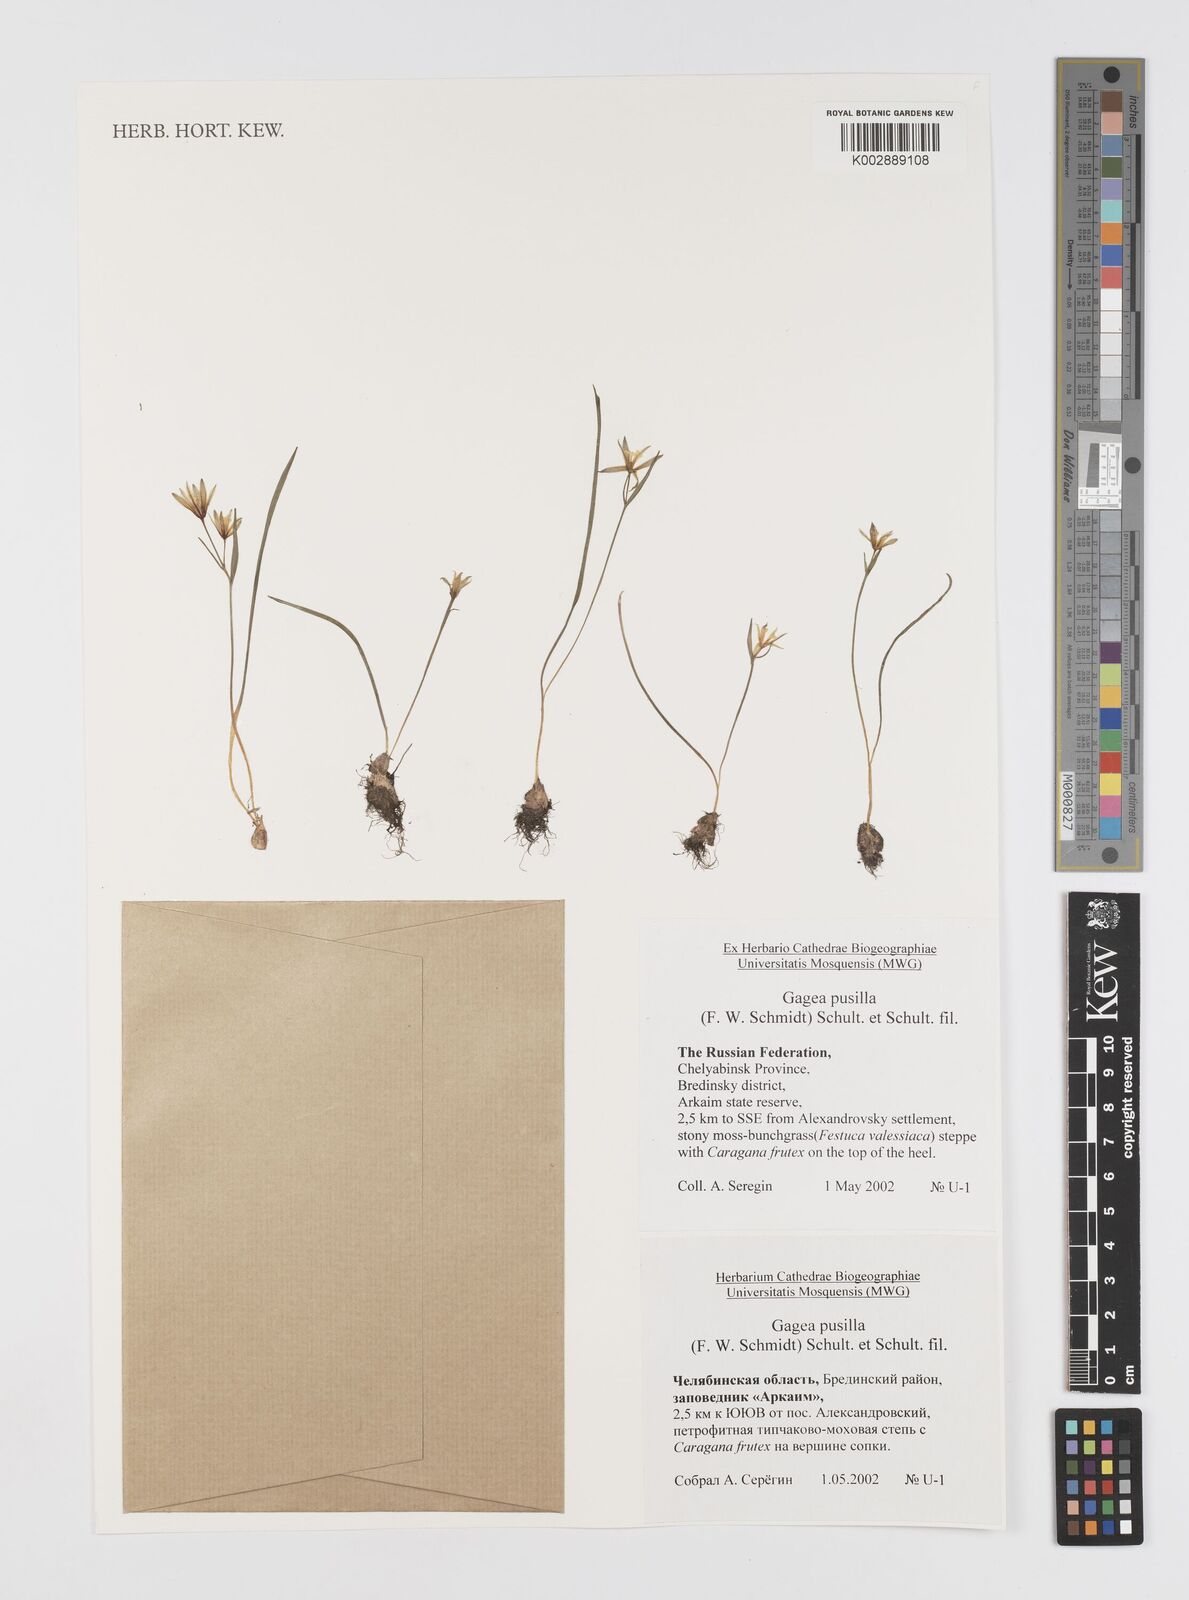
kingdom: Plantae
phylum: Tracheophyta
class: Liliopsida
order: Liliales
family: Liliaceae
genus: Gagea
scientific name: Gagea pusilla
